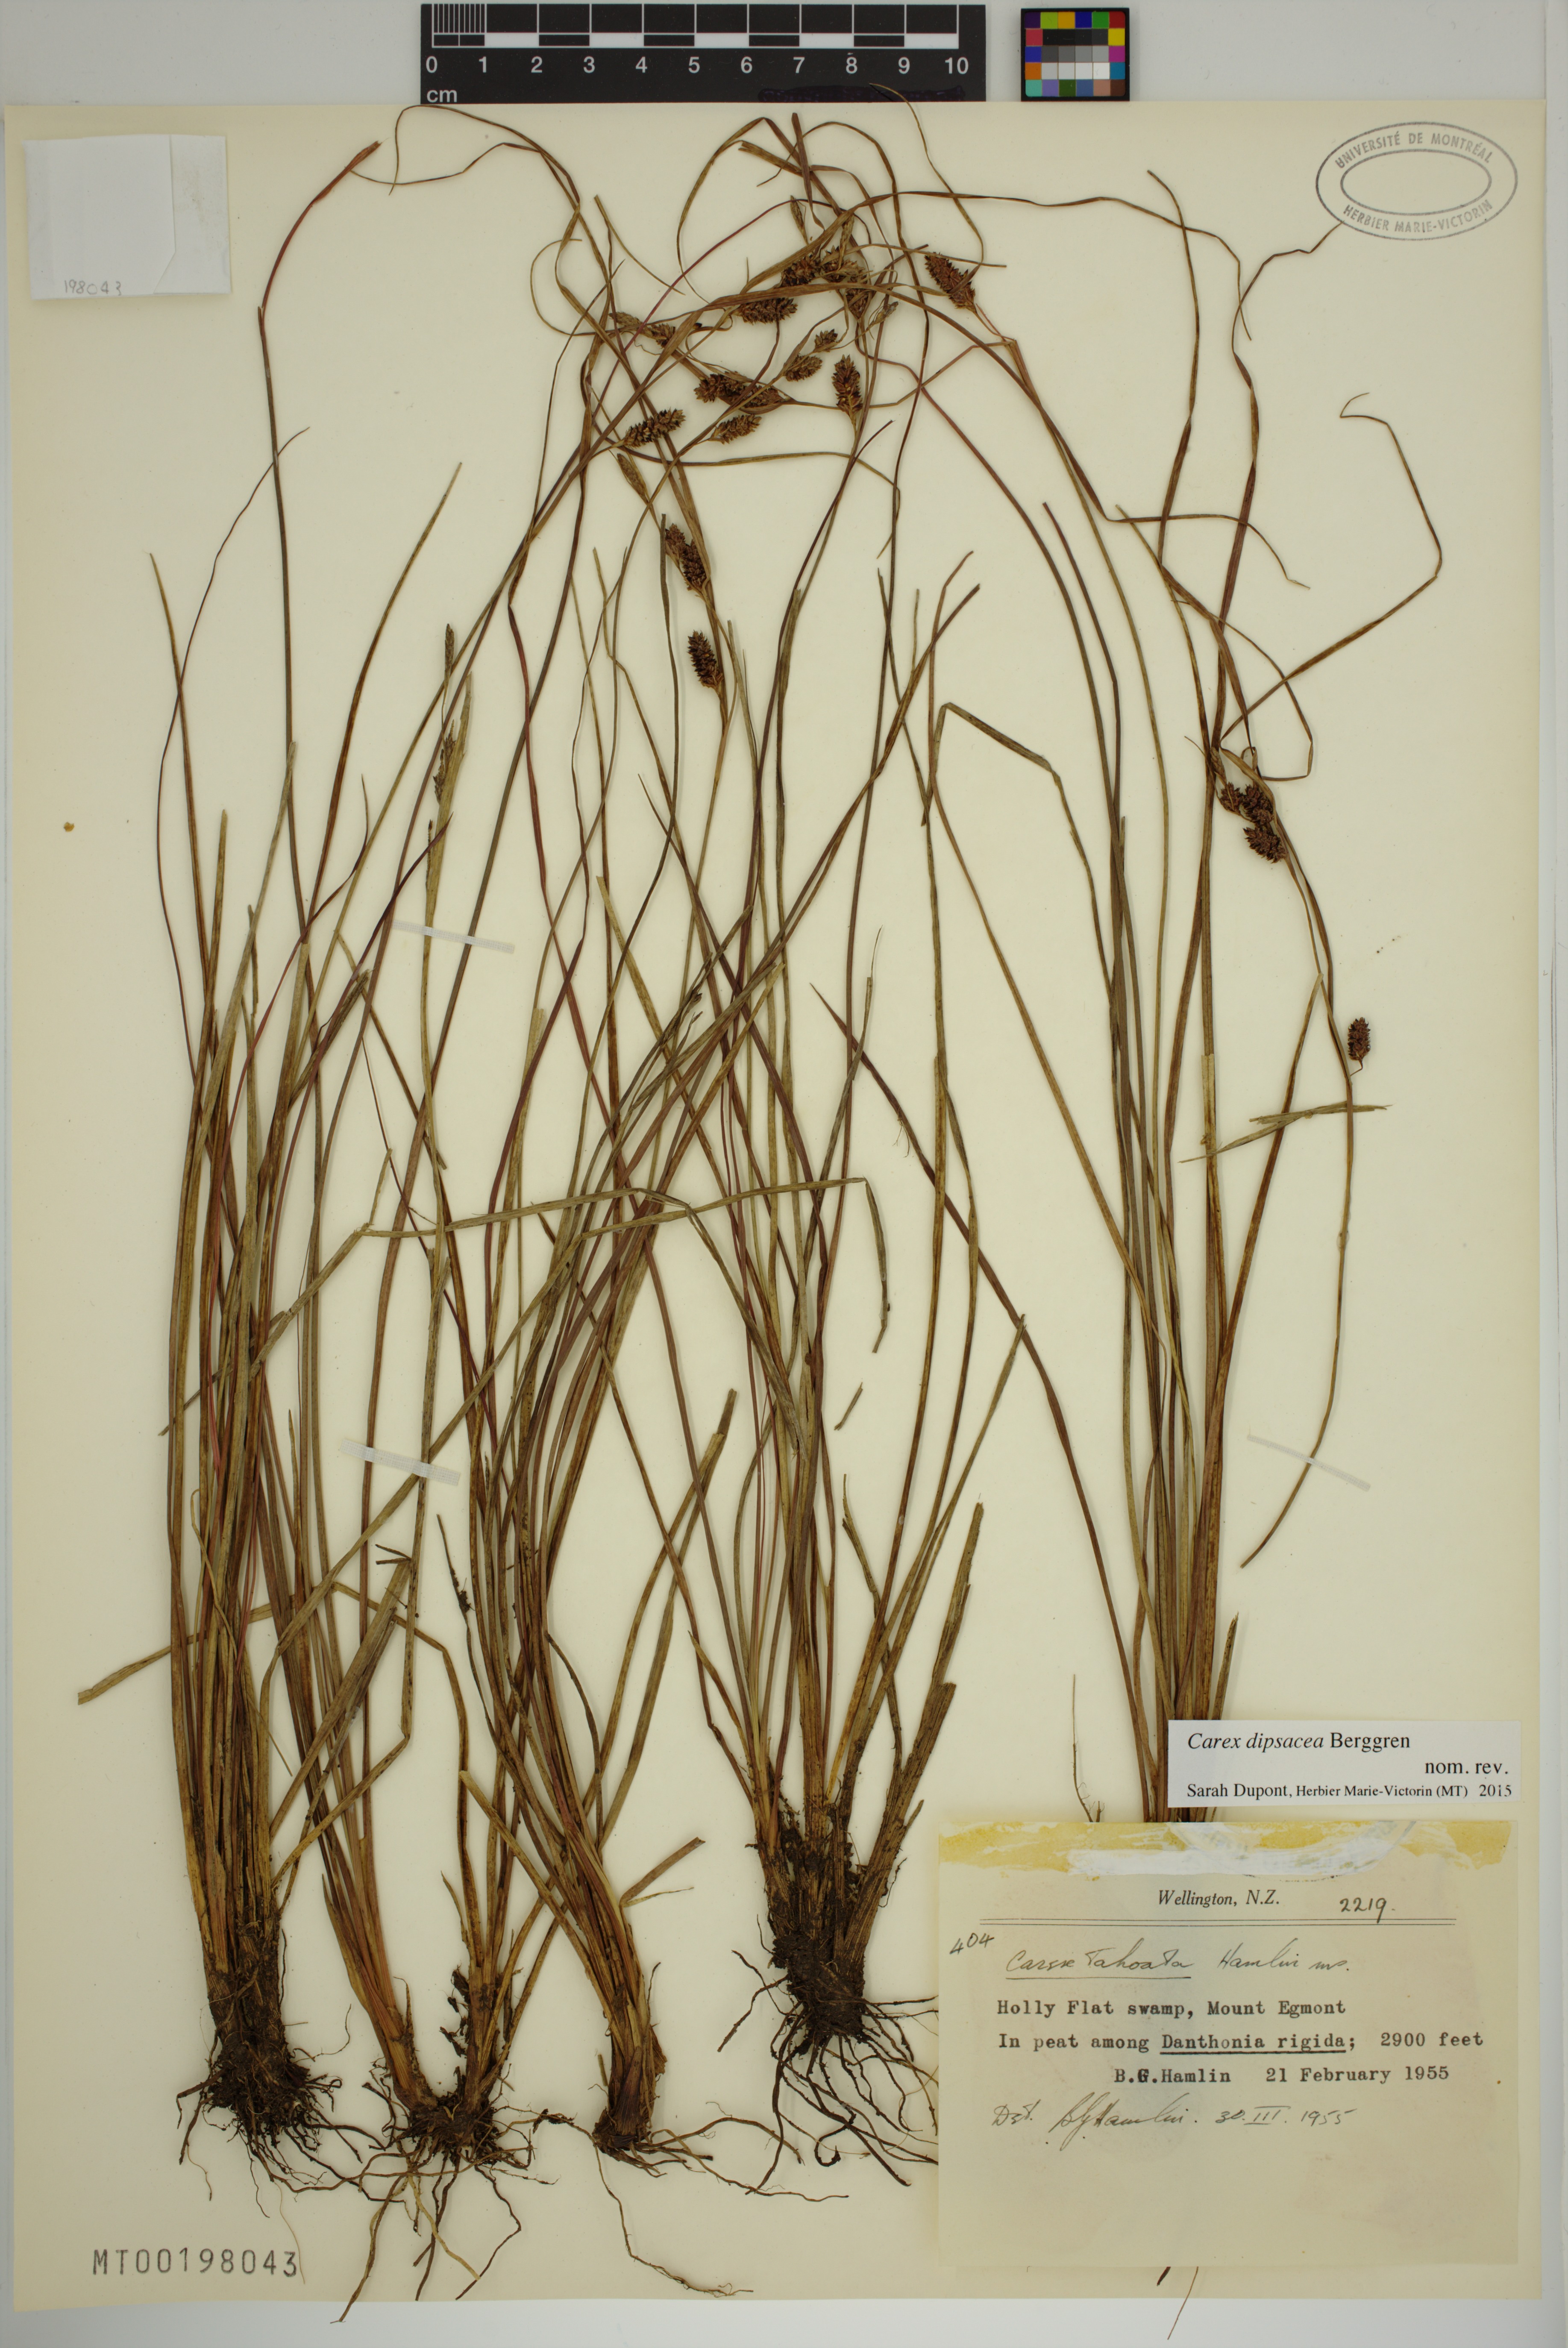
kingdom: Plantae
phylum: Tracheophyta
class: Liliopsida
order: Poales
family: Cyperaceae
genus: Carex
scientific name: Carex dipsacea
